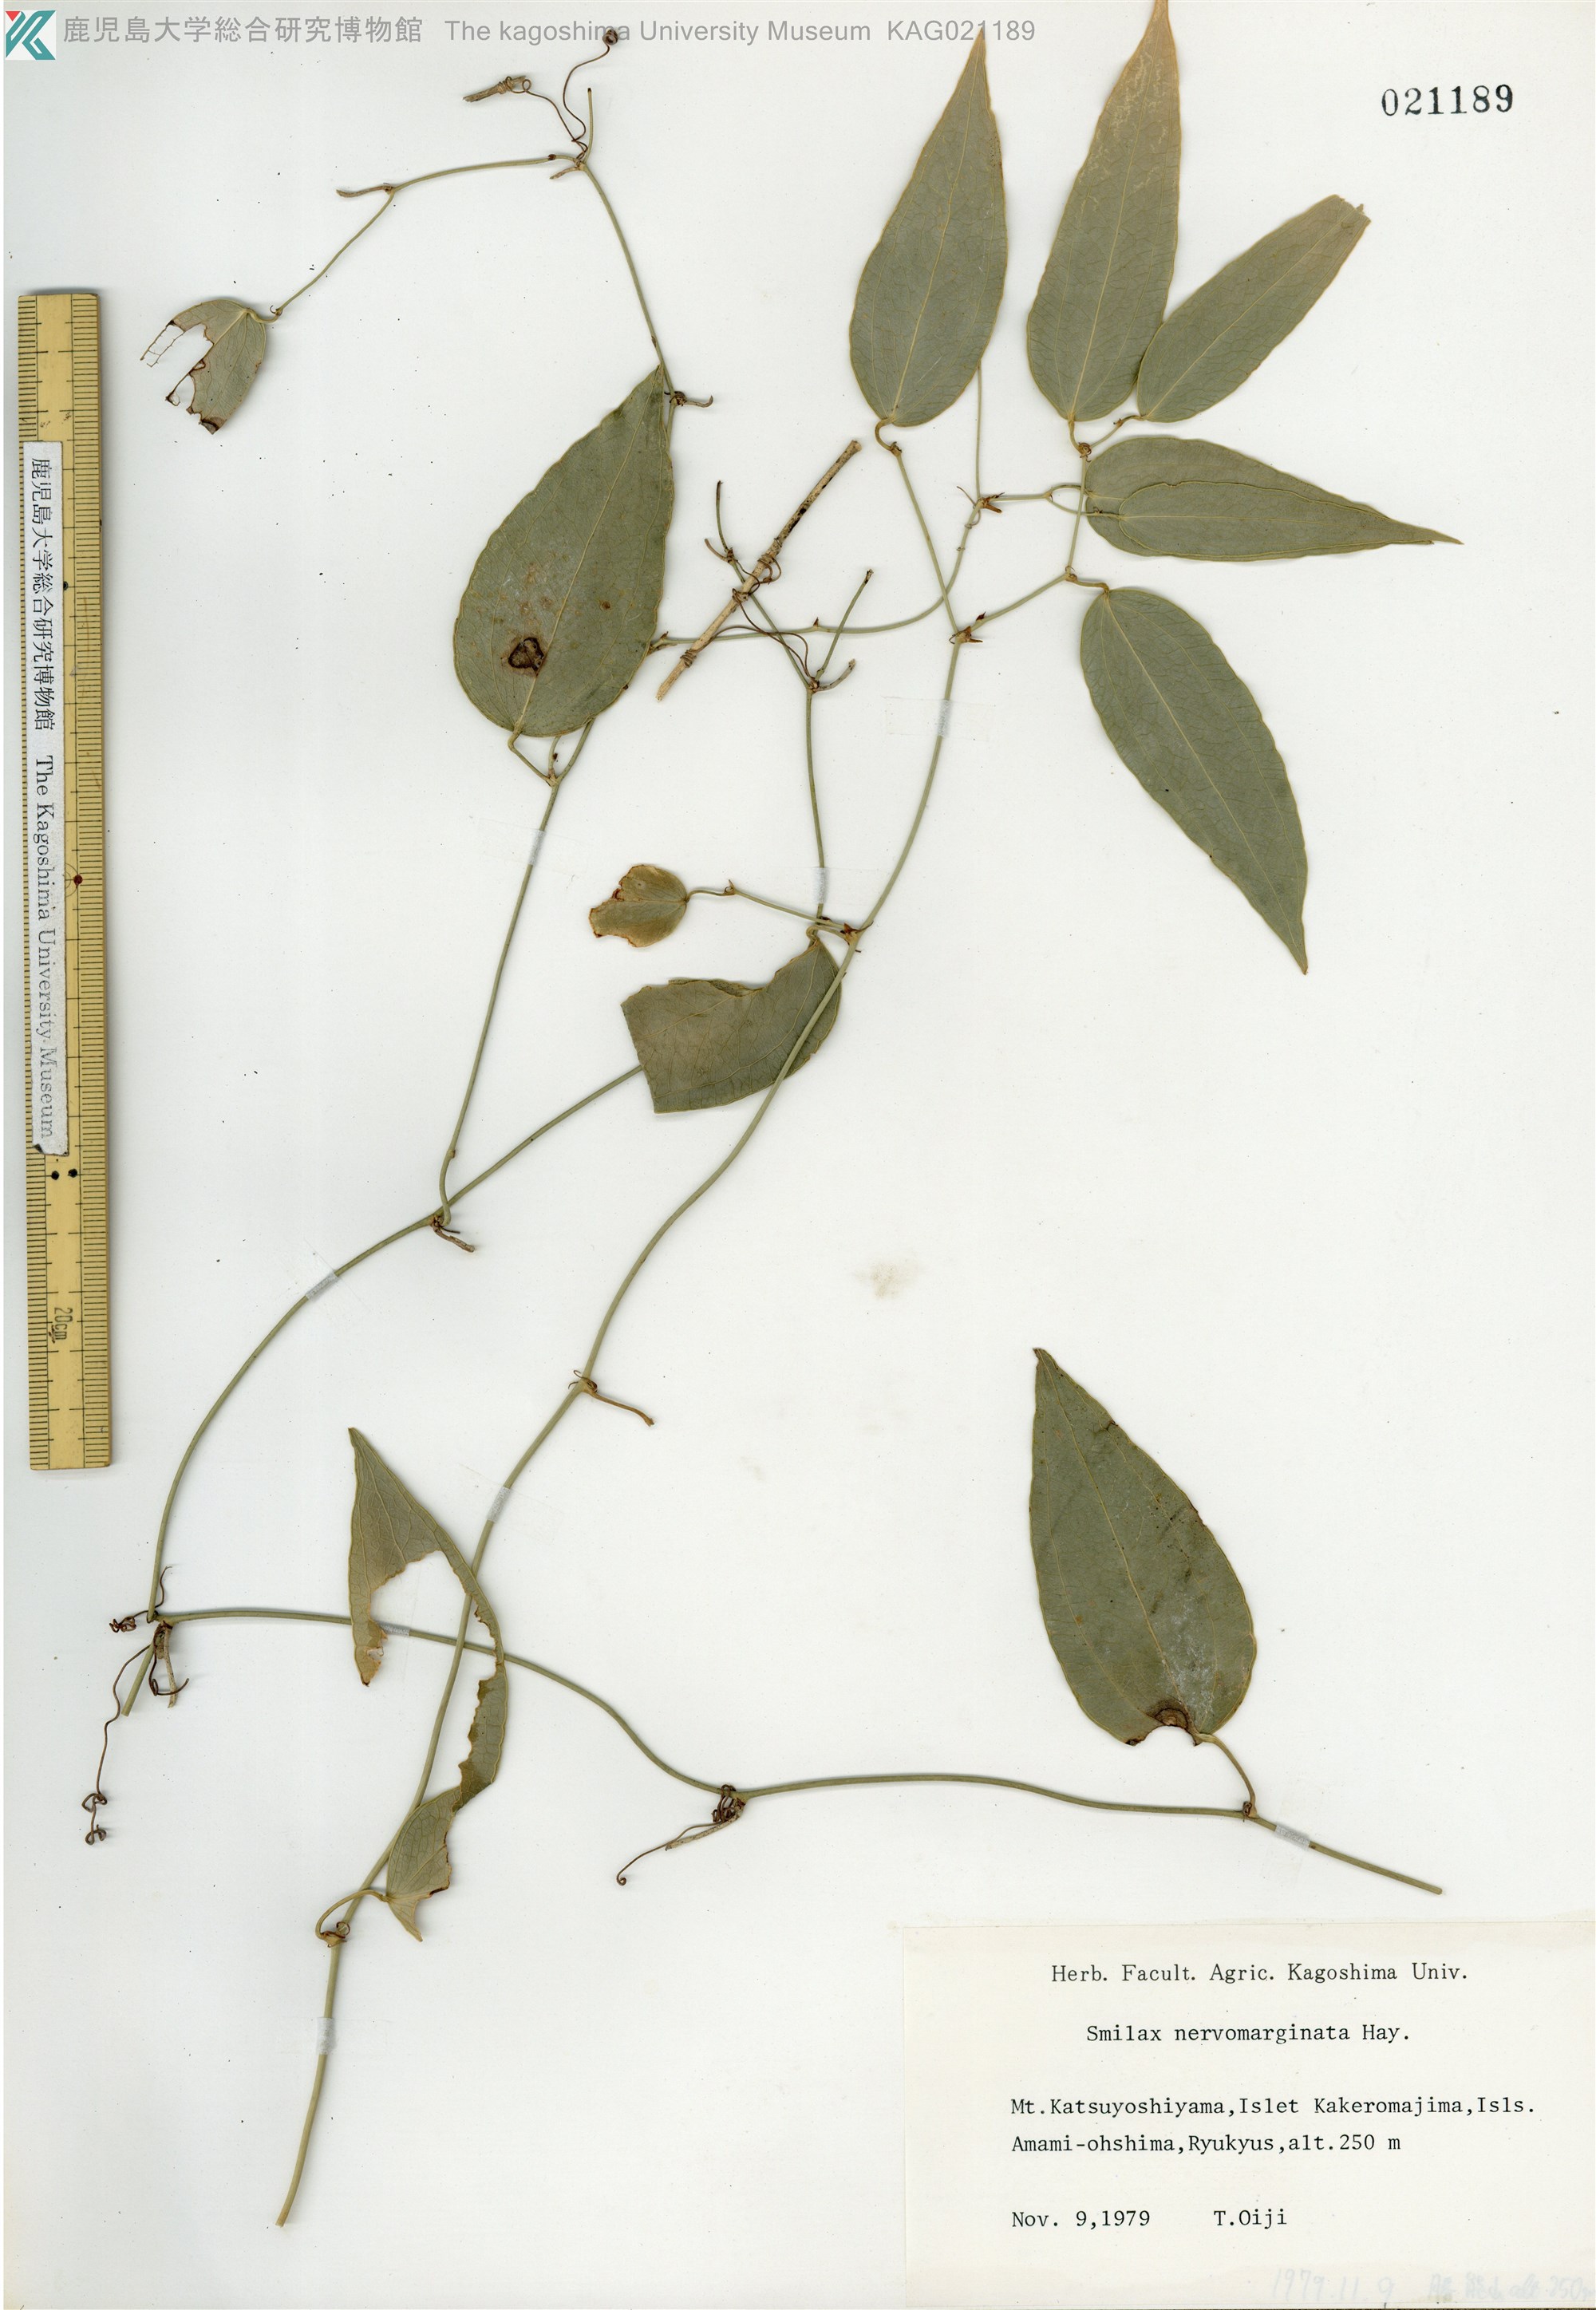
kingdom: Plantae
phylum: Tracheophyta
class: Liliopsida
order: Liliales
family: Smilacaceae
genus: Smilax
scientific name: Smilax nervomarginata
